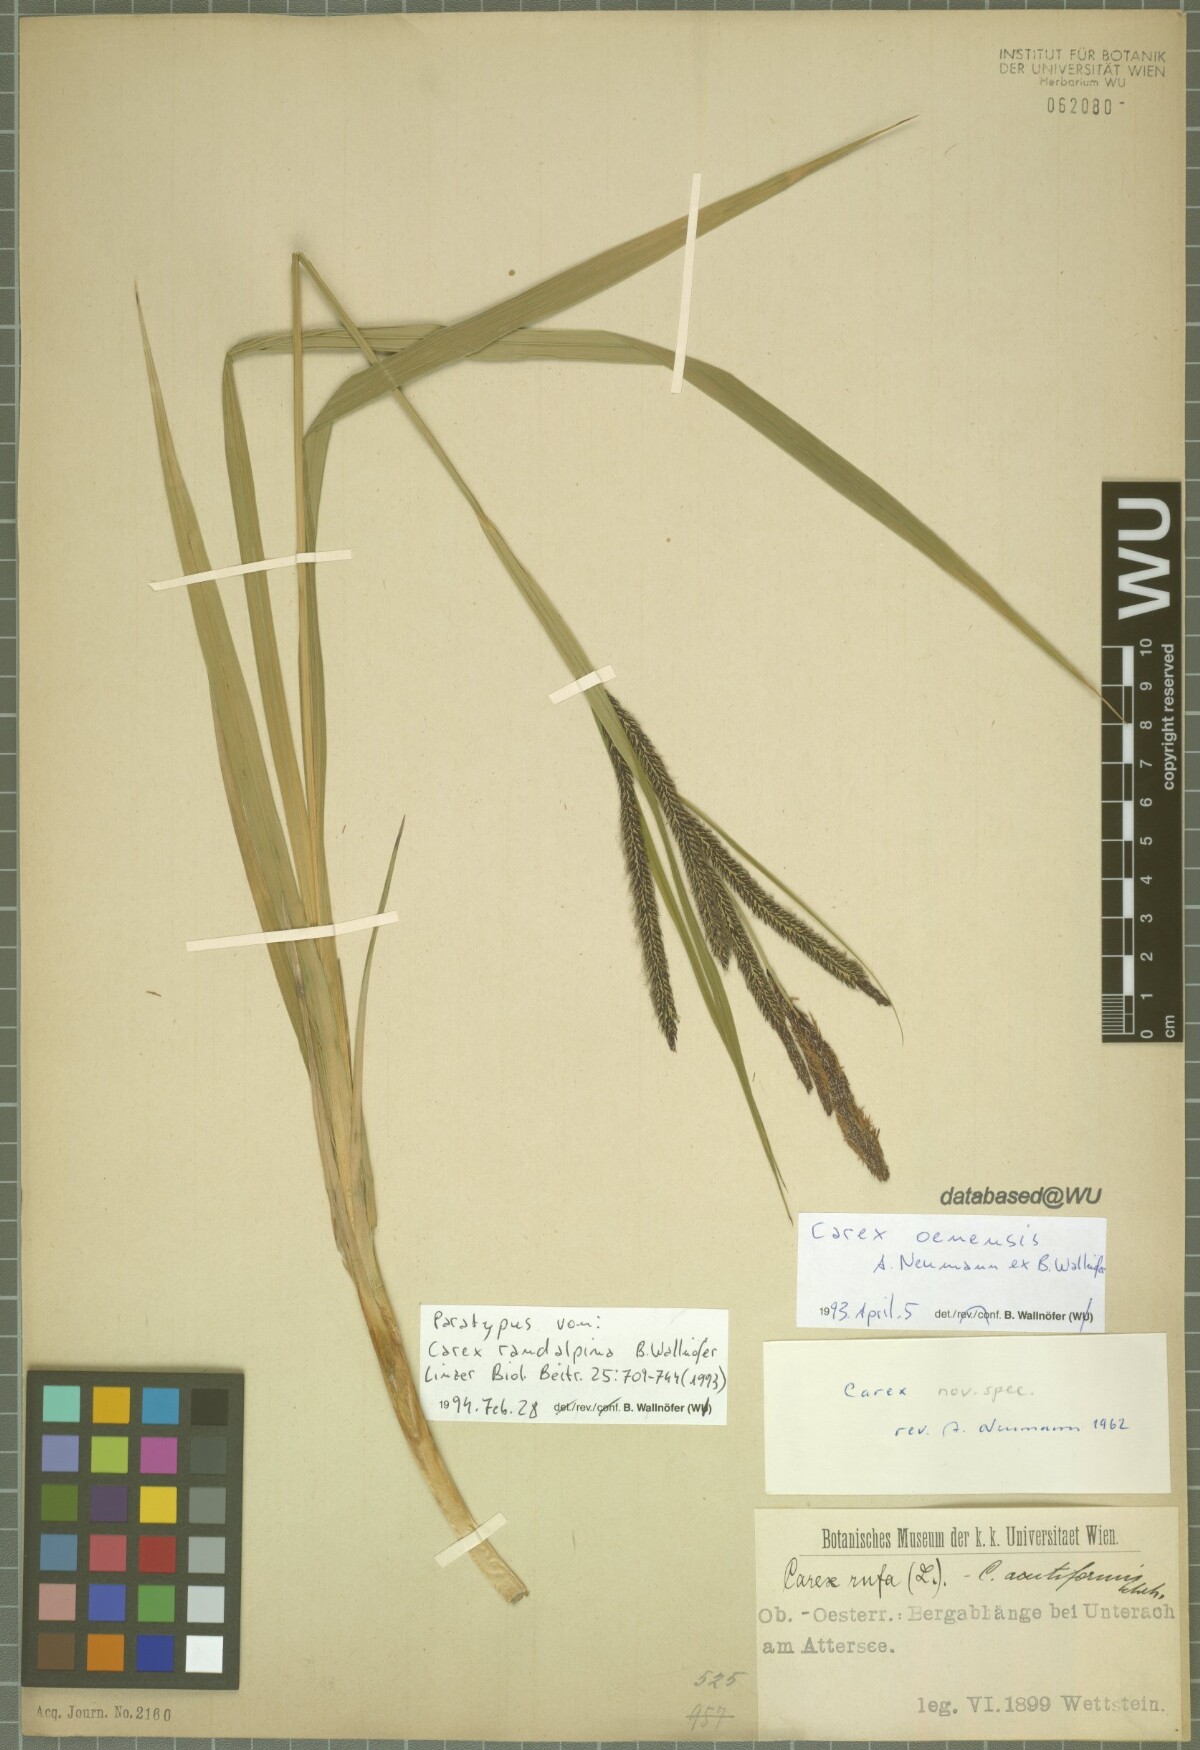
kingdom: Plantae
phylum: Tracheophyta
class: Liliopsida
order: Poales
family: Cyperaceae
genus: Carex
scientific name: Carex randalpina
